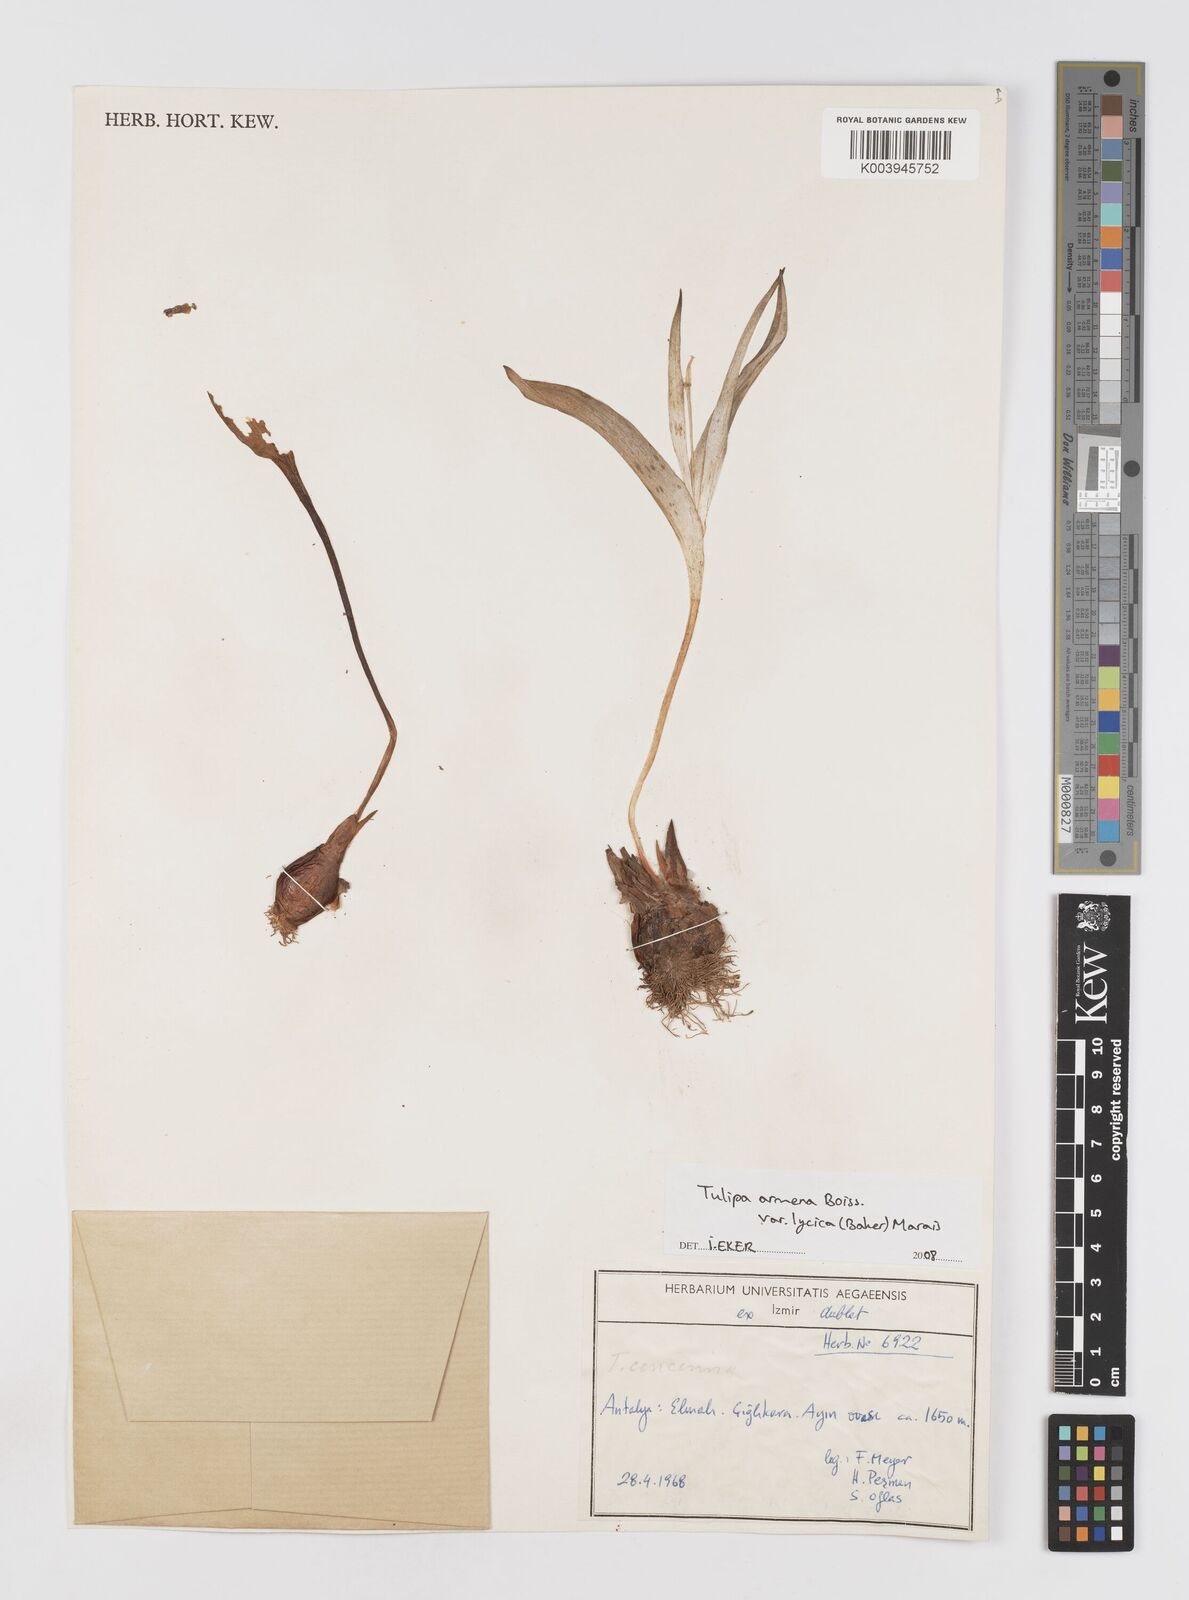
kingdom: Plantae
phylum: Tracheophyta
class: Liliopsida
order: Liliales
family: Liliaceae
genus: Tulipa
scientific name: Tulipa armena
